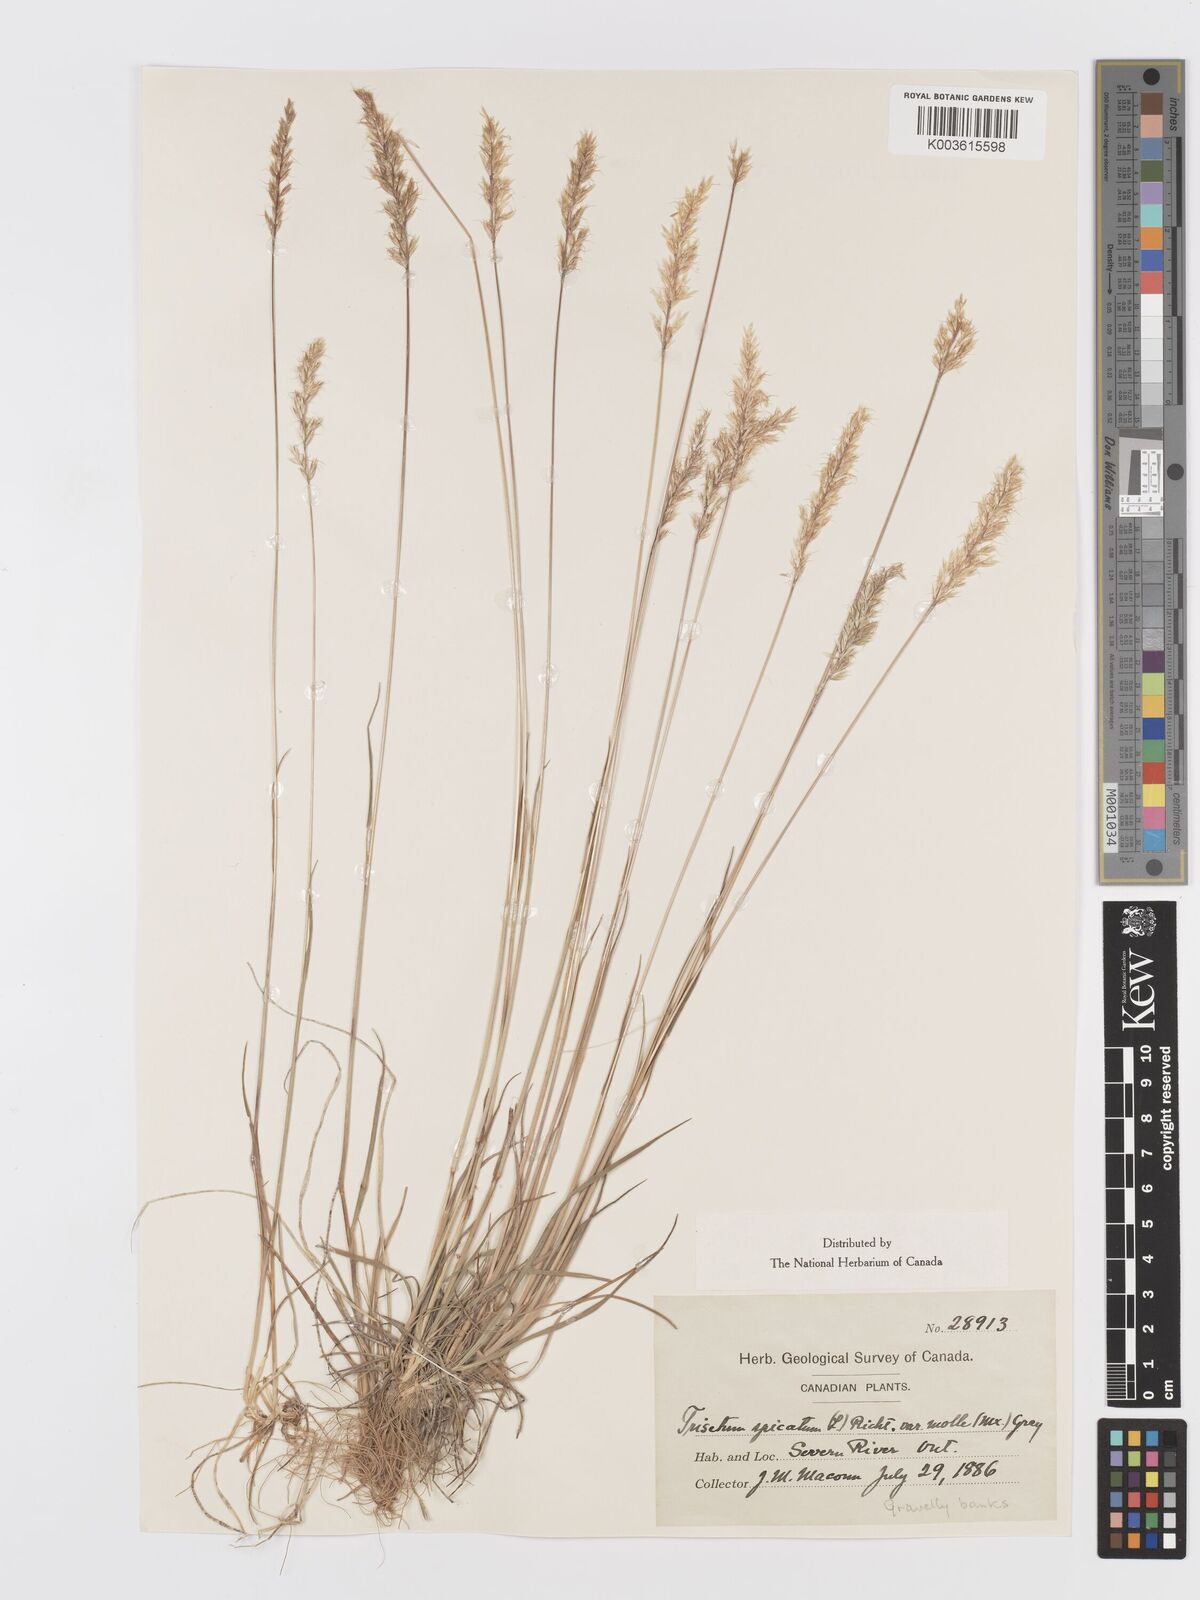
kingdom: Plantae
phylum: Tracheophyta
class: Liliopsida
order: Poales
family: Poaceae
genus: Koeleria
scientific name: Koeleria spicata
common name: Mountain trisetum
